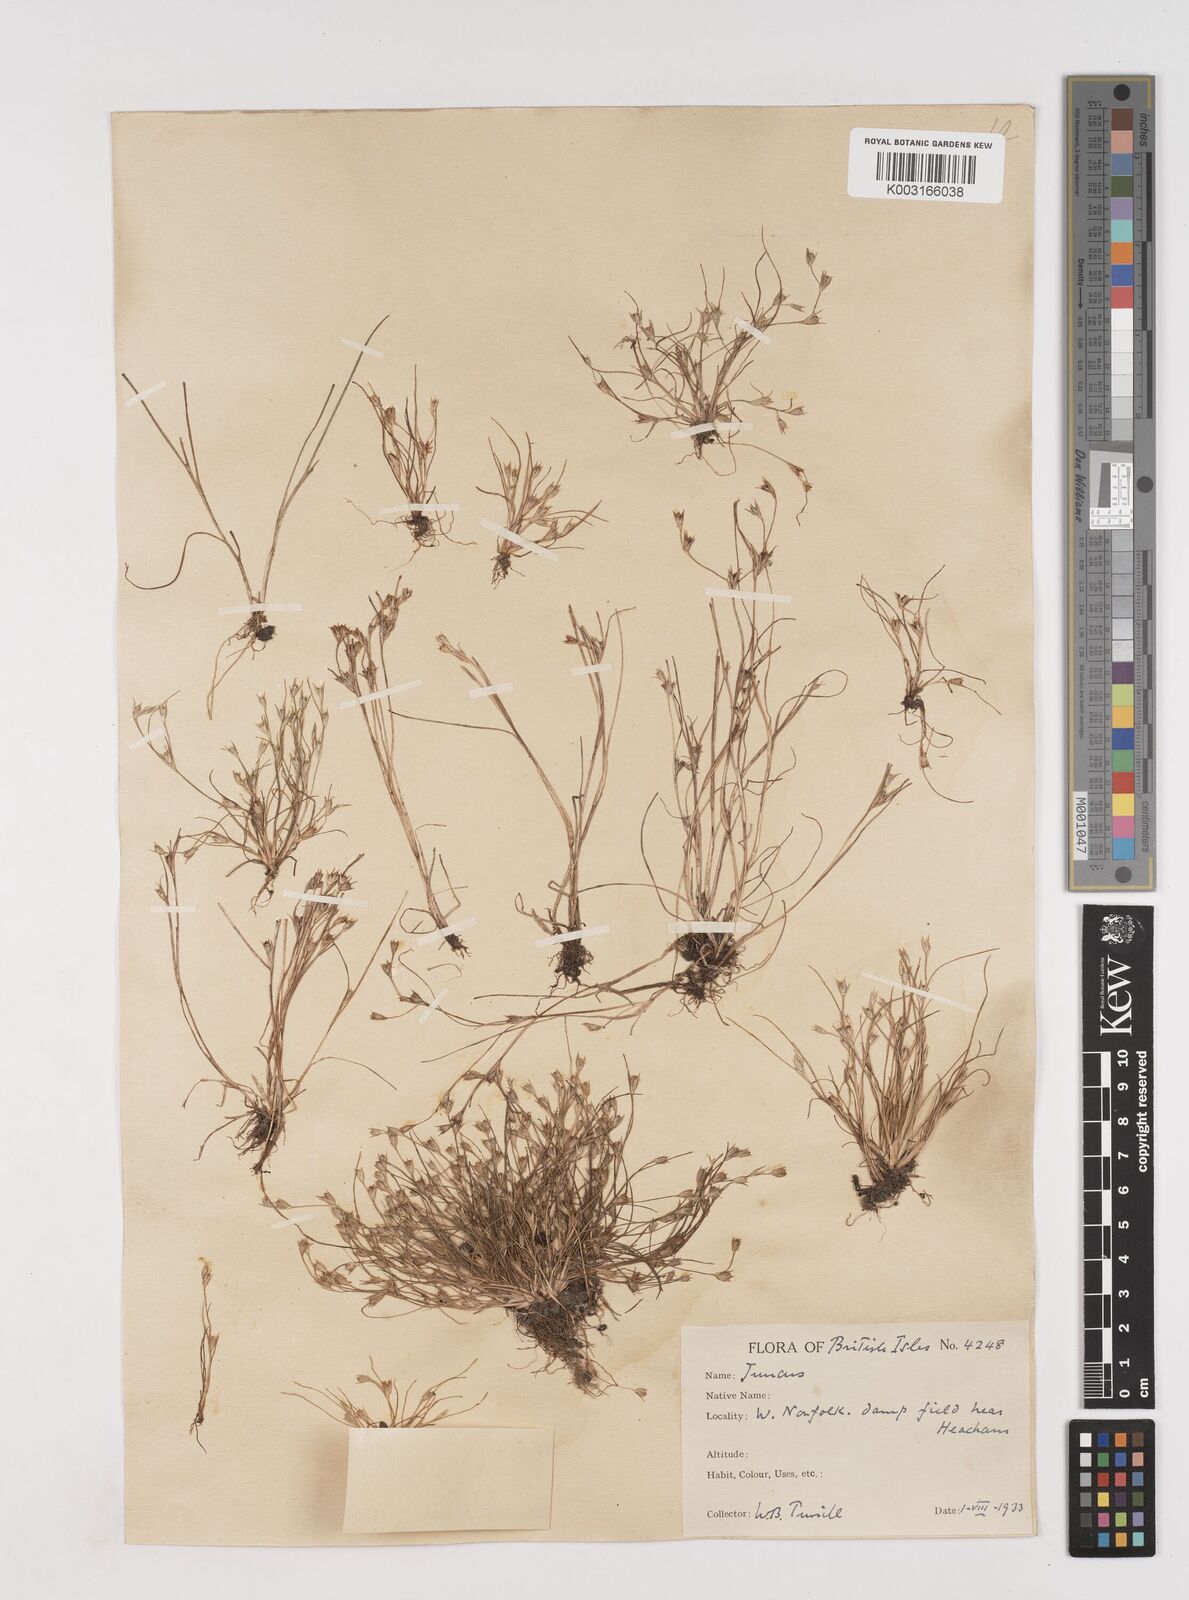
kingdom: Plantae
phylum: Tracheophyta
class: Liliopsida
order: Poales
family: Juncaceae
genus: Juncus
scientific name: Juncus hybridus
